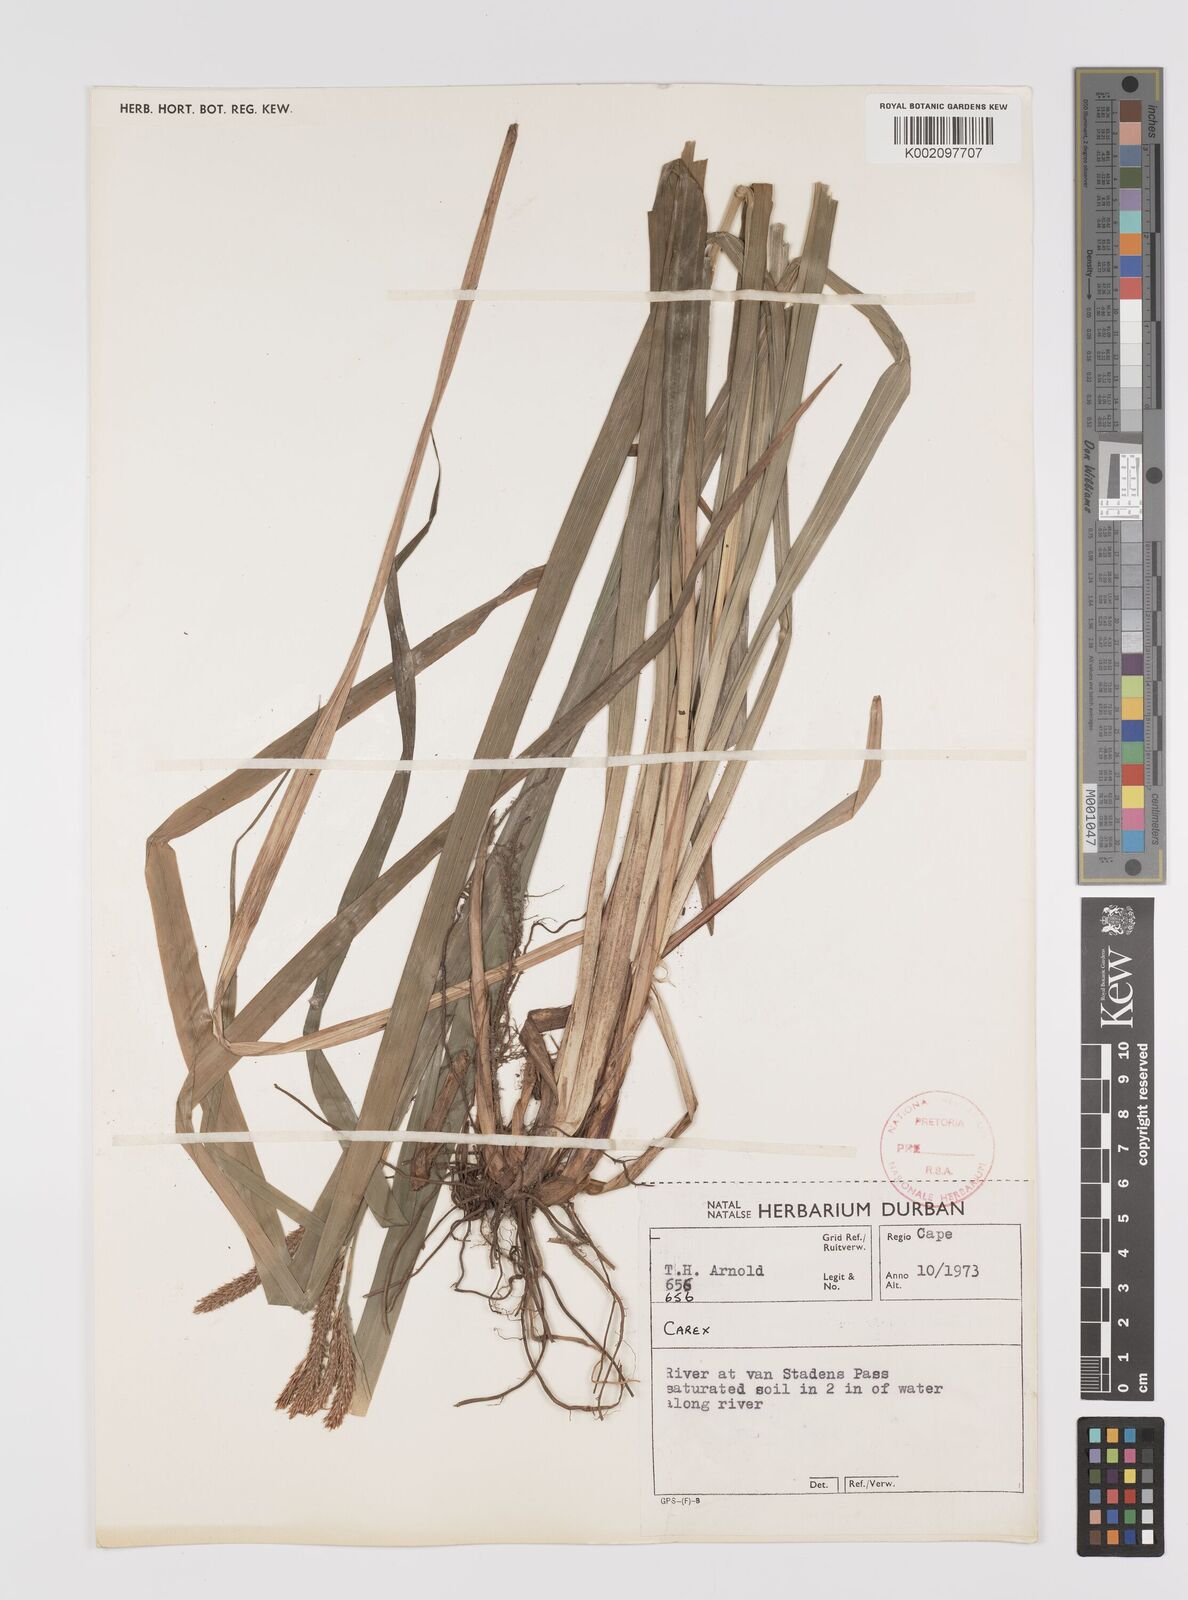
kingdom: Plantae
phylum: Tracheophyta
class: Liliopsida
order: Poales
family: Cyperaceae
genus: Carex
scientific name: Carex
